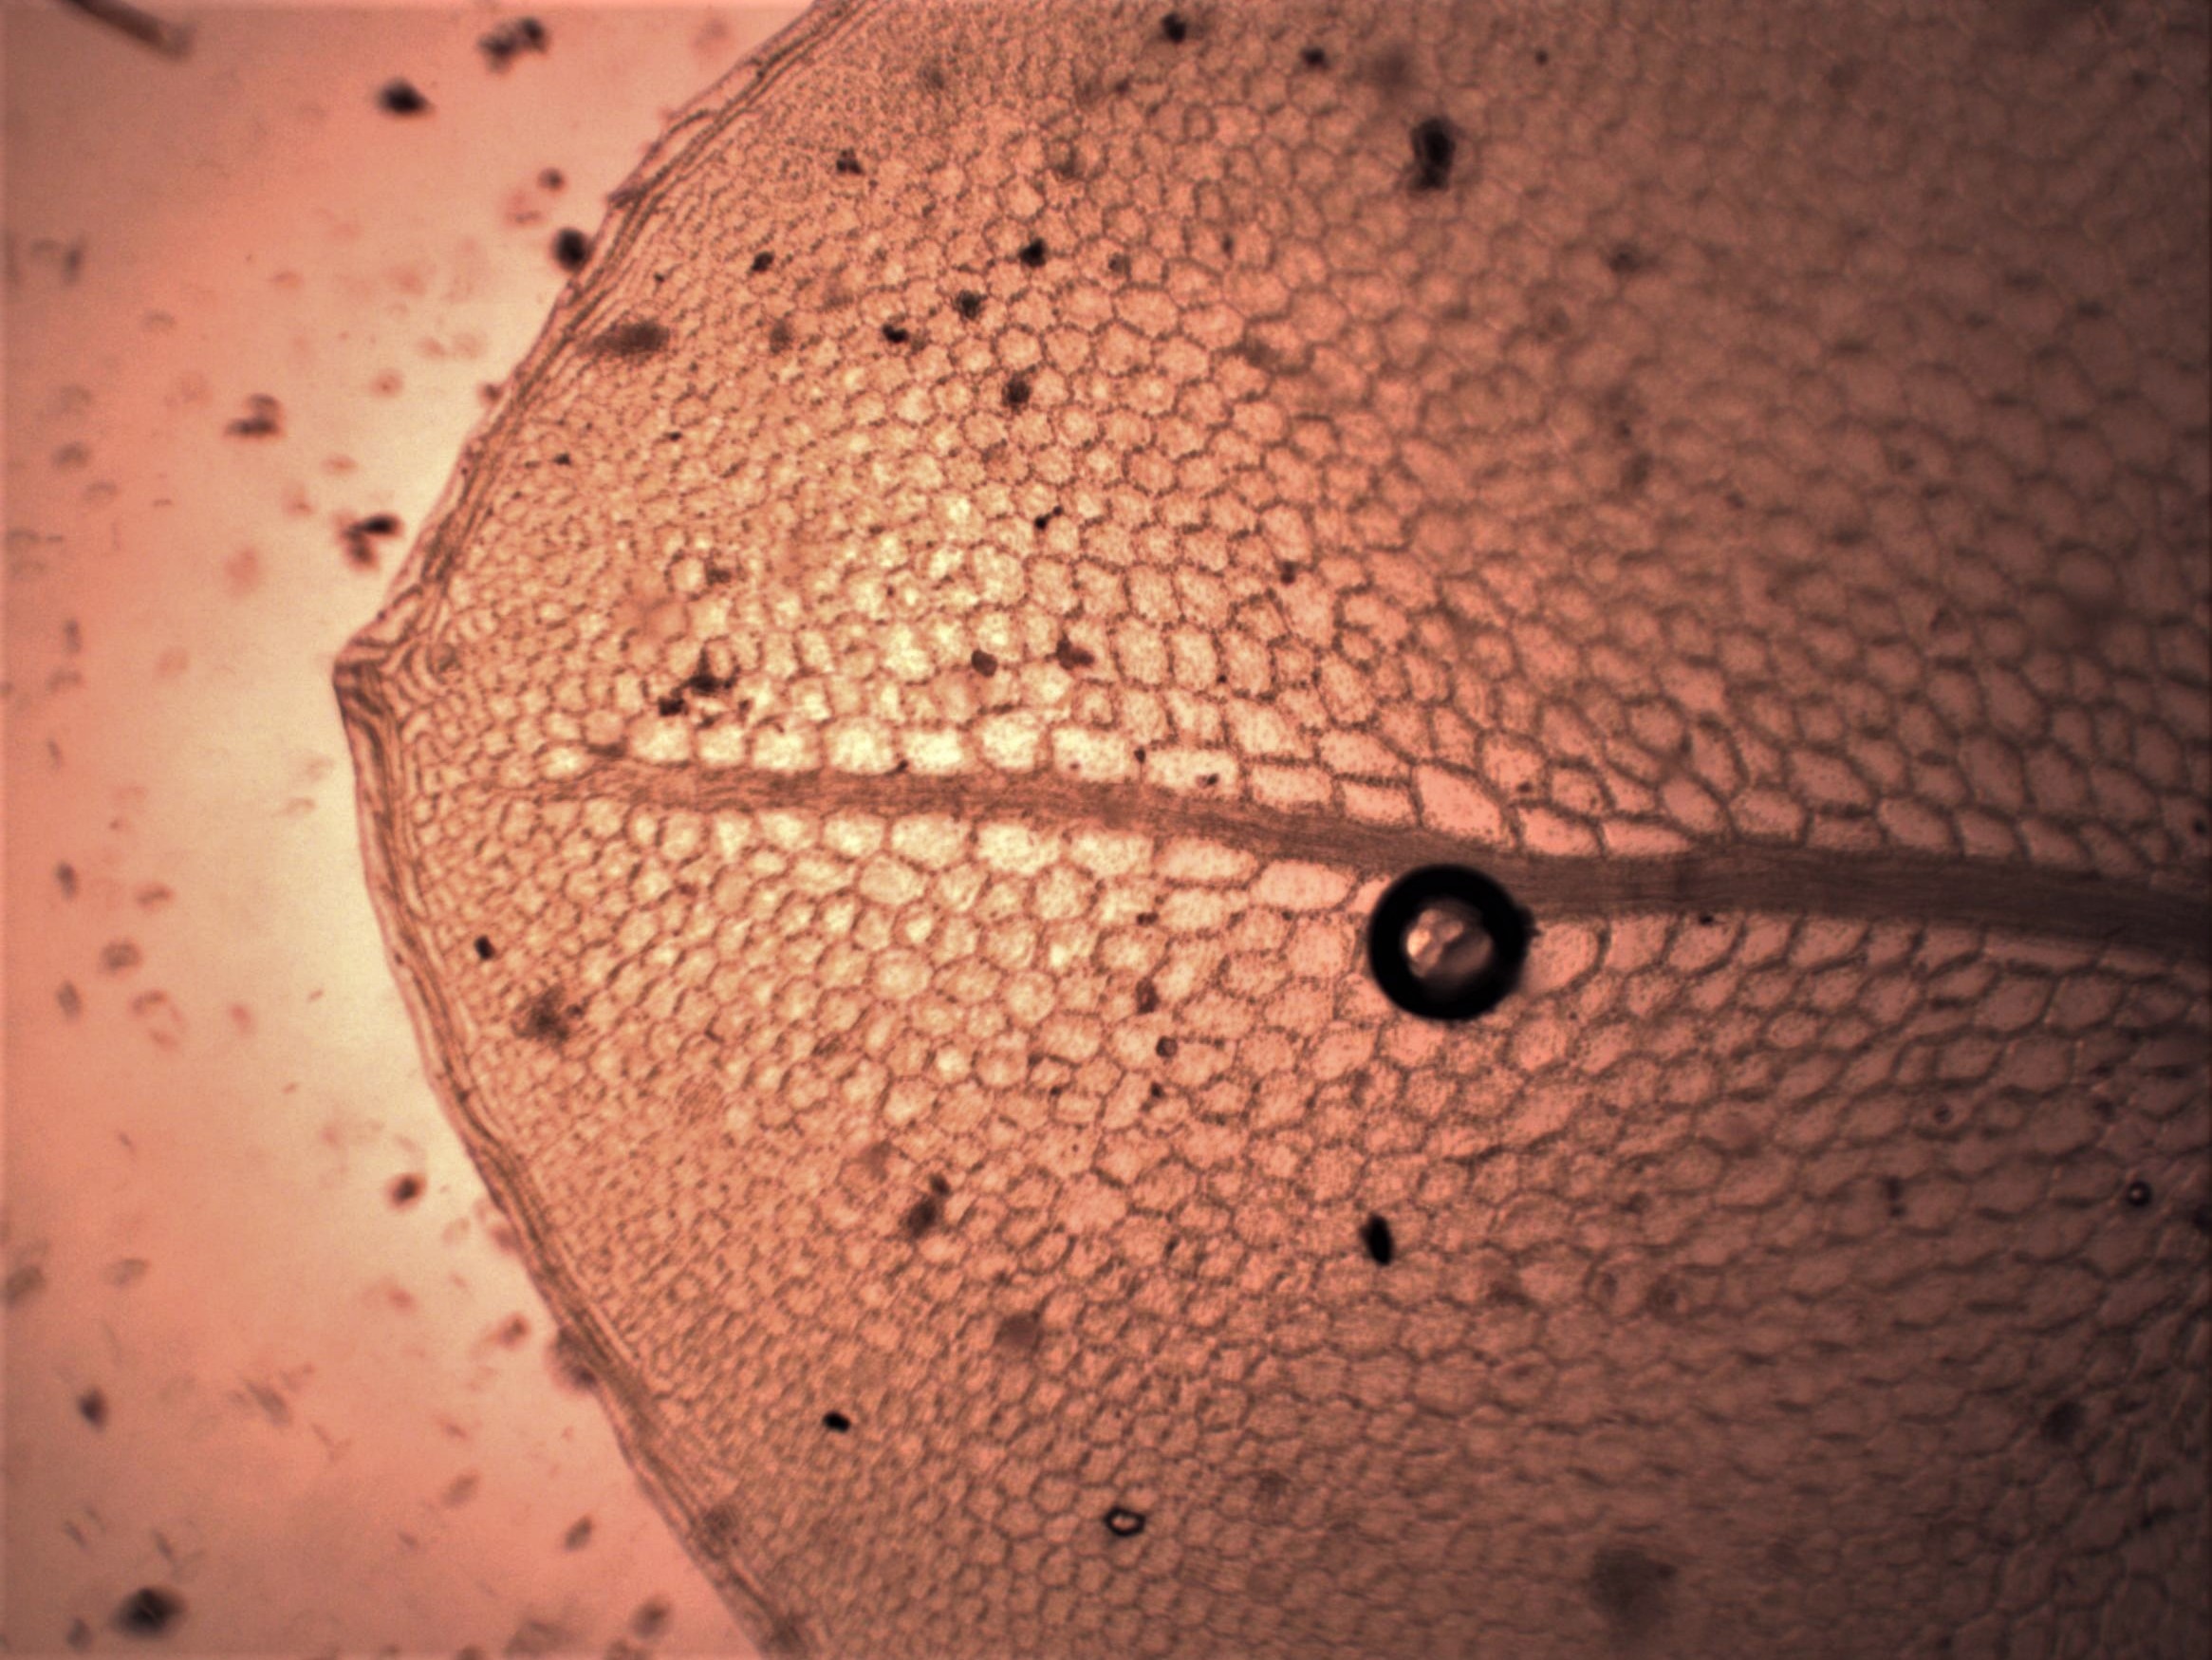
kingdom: Plantae
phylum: Bryophyta
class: Bryopsida
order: Bryales
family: Mniaceae
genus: Rhizomnium
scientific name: Rhizomnium punctatum
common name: Almindelig bredblad
